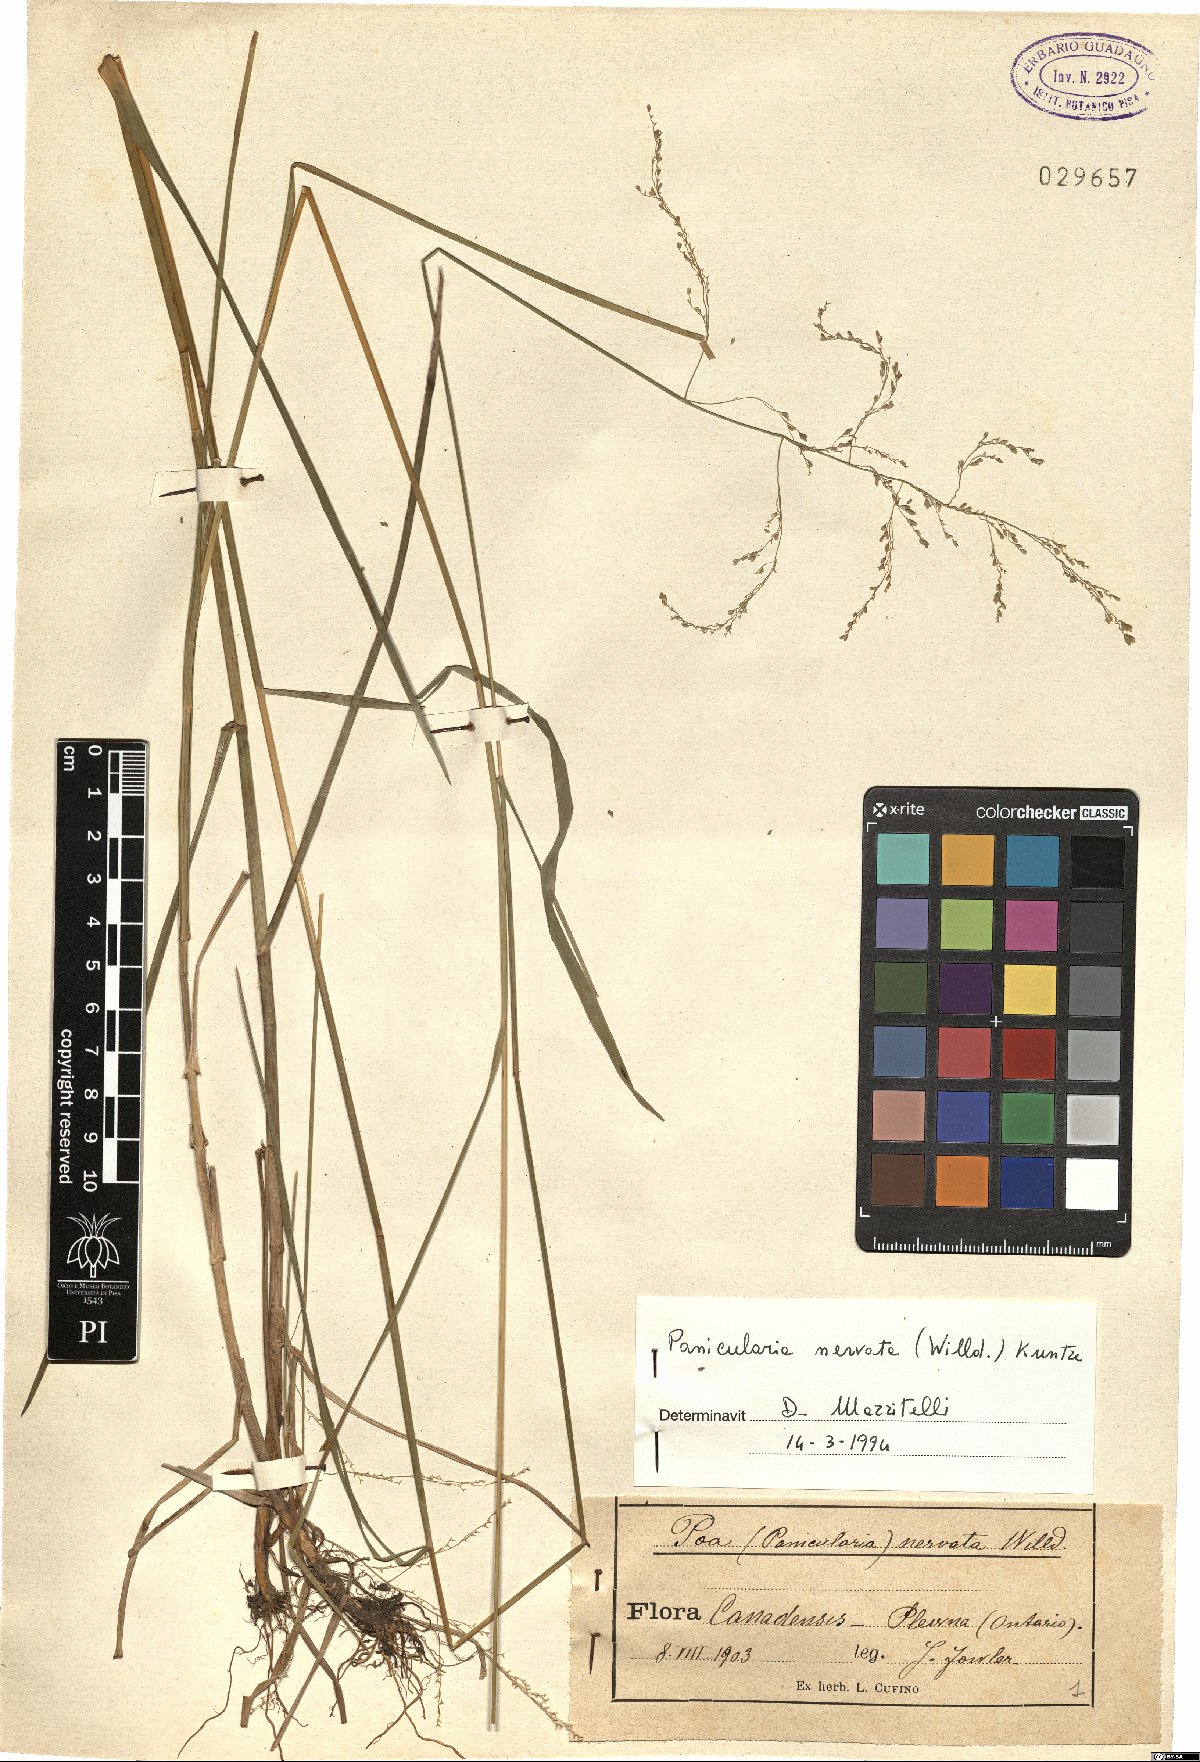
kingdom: Plantae
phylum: Tracheophyta
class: Liliopsida
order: Poales
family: Poaceae
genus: Glyceria
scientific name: Glyceria striata
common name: Fowl manna grass
